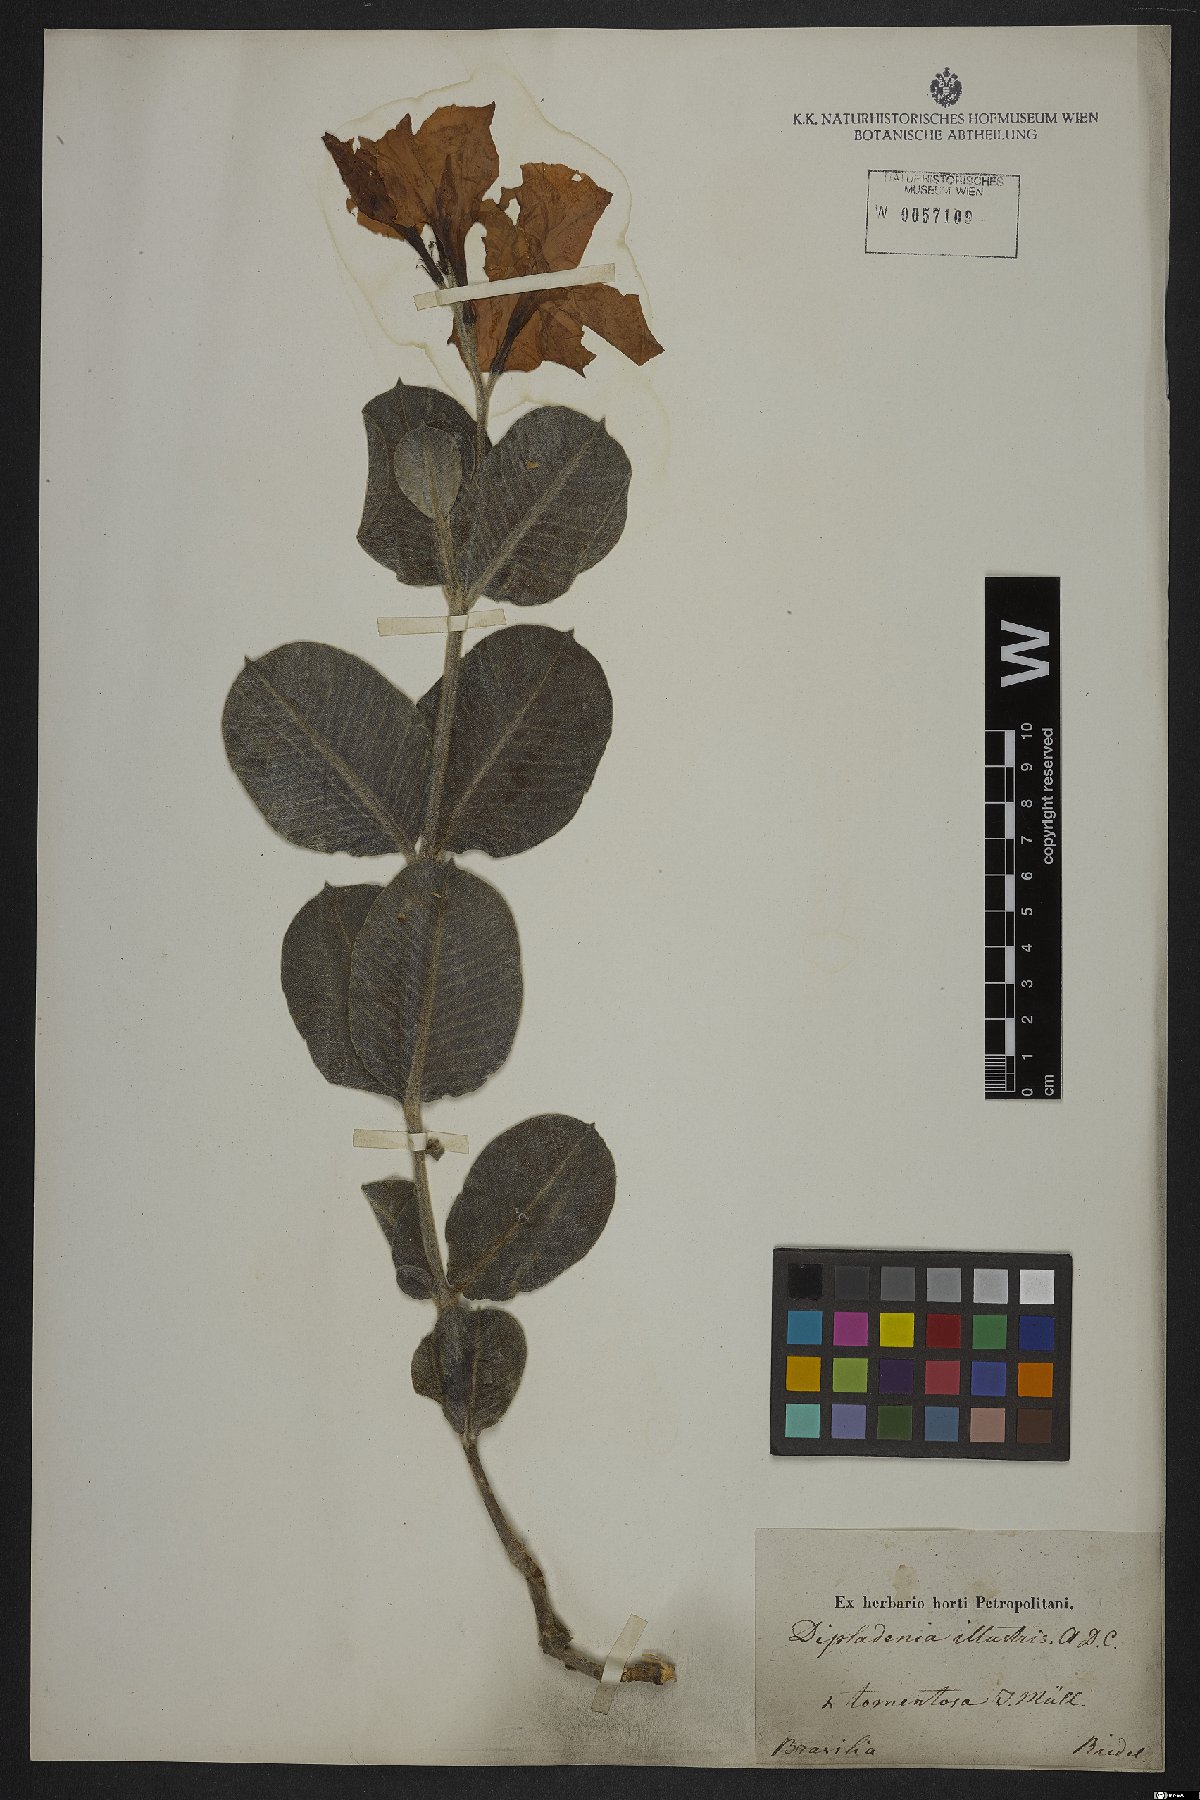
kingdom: Plantae
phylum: Tracheophyta
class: Magnoliopsida
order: Gentianales
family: Apocynaceae
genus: Mandevilla
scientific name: Mandevilla illustris
